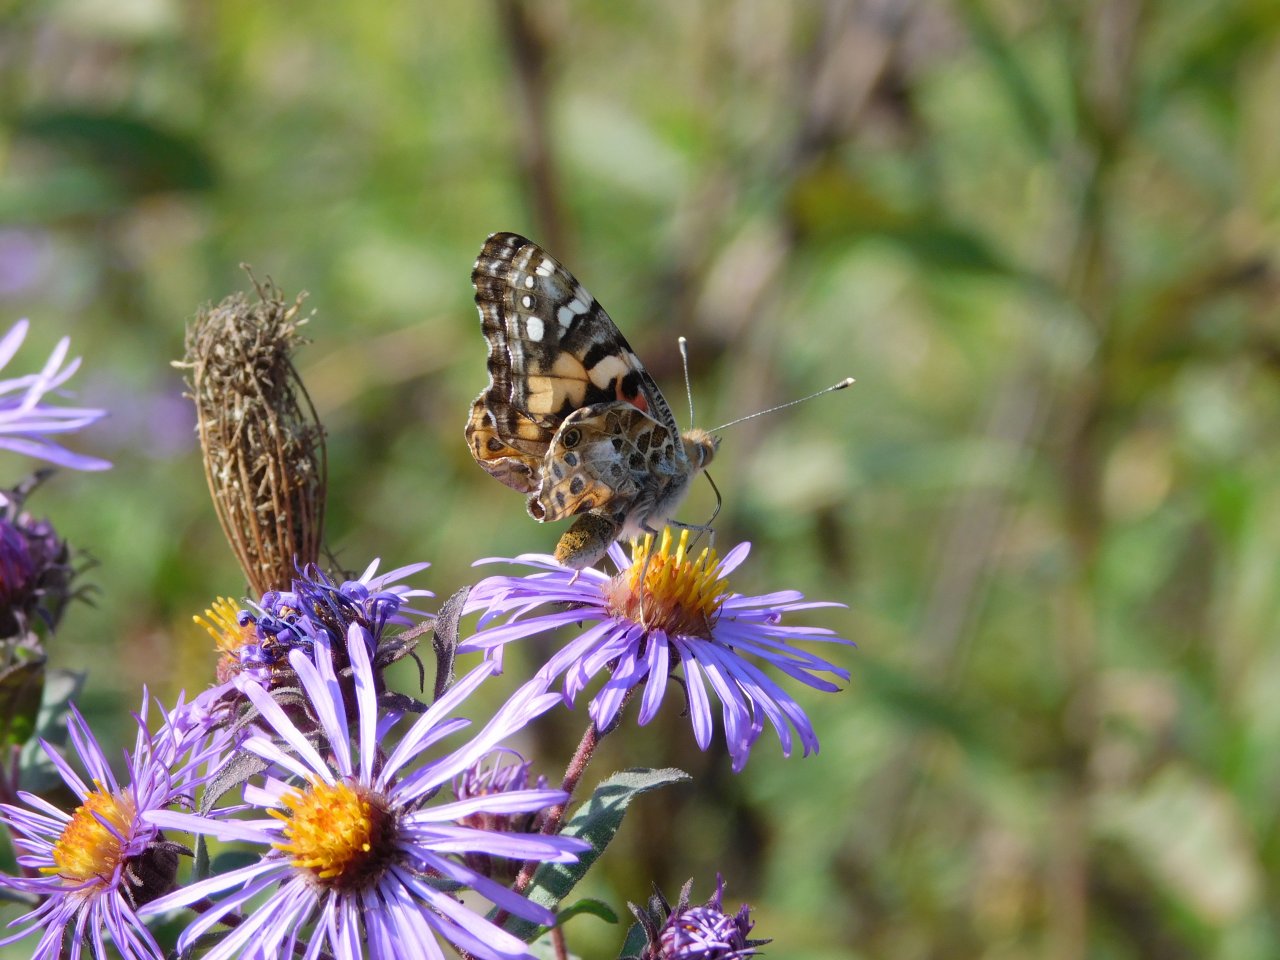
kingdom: Animalia
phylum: Arthropoda
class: Insecta
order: Lepidoptera
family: Nymphalidae
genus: Vanessa
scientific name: Vanessa cardui
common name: Painted Lady
